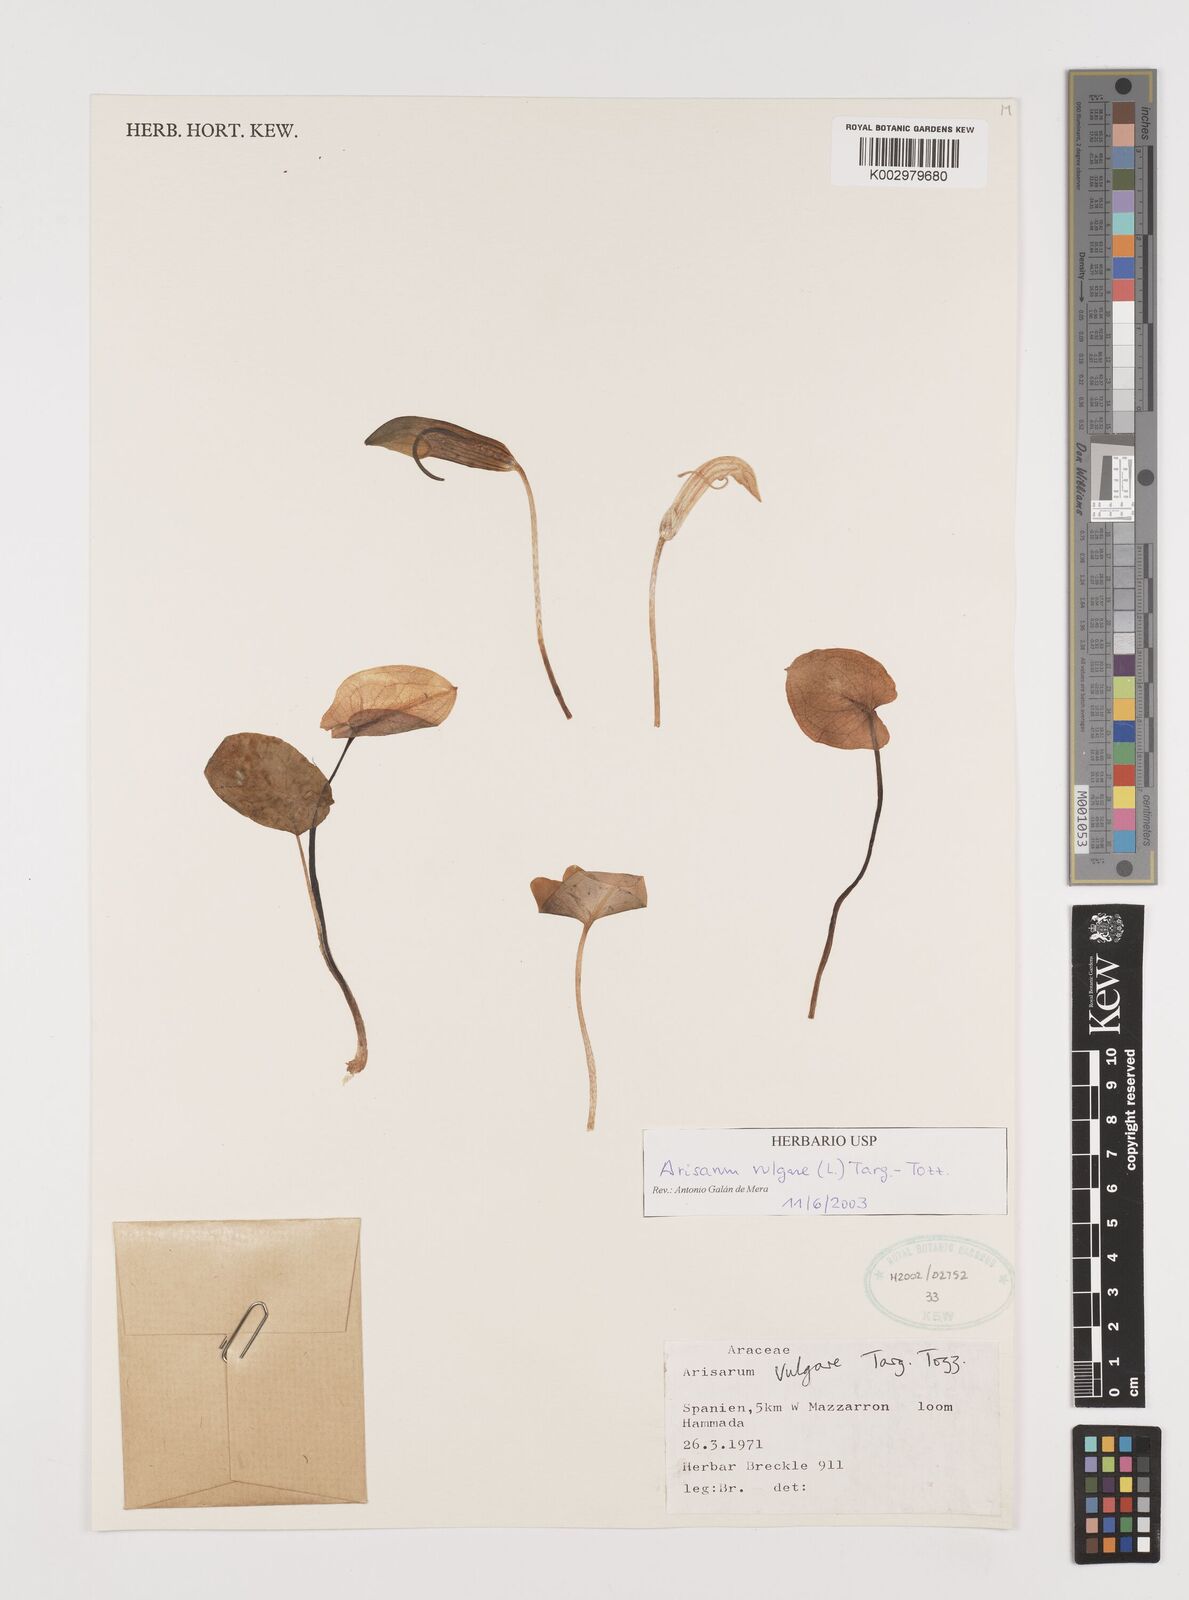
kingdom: Plantae
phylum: Tracheophyta
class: Liliopsida
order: Alismatales
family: Araceae
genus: Arisarum
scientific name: Arisarum vulgare
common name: Common arisarum
